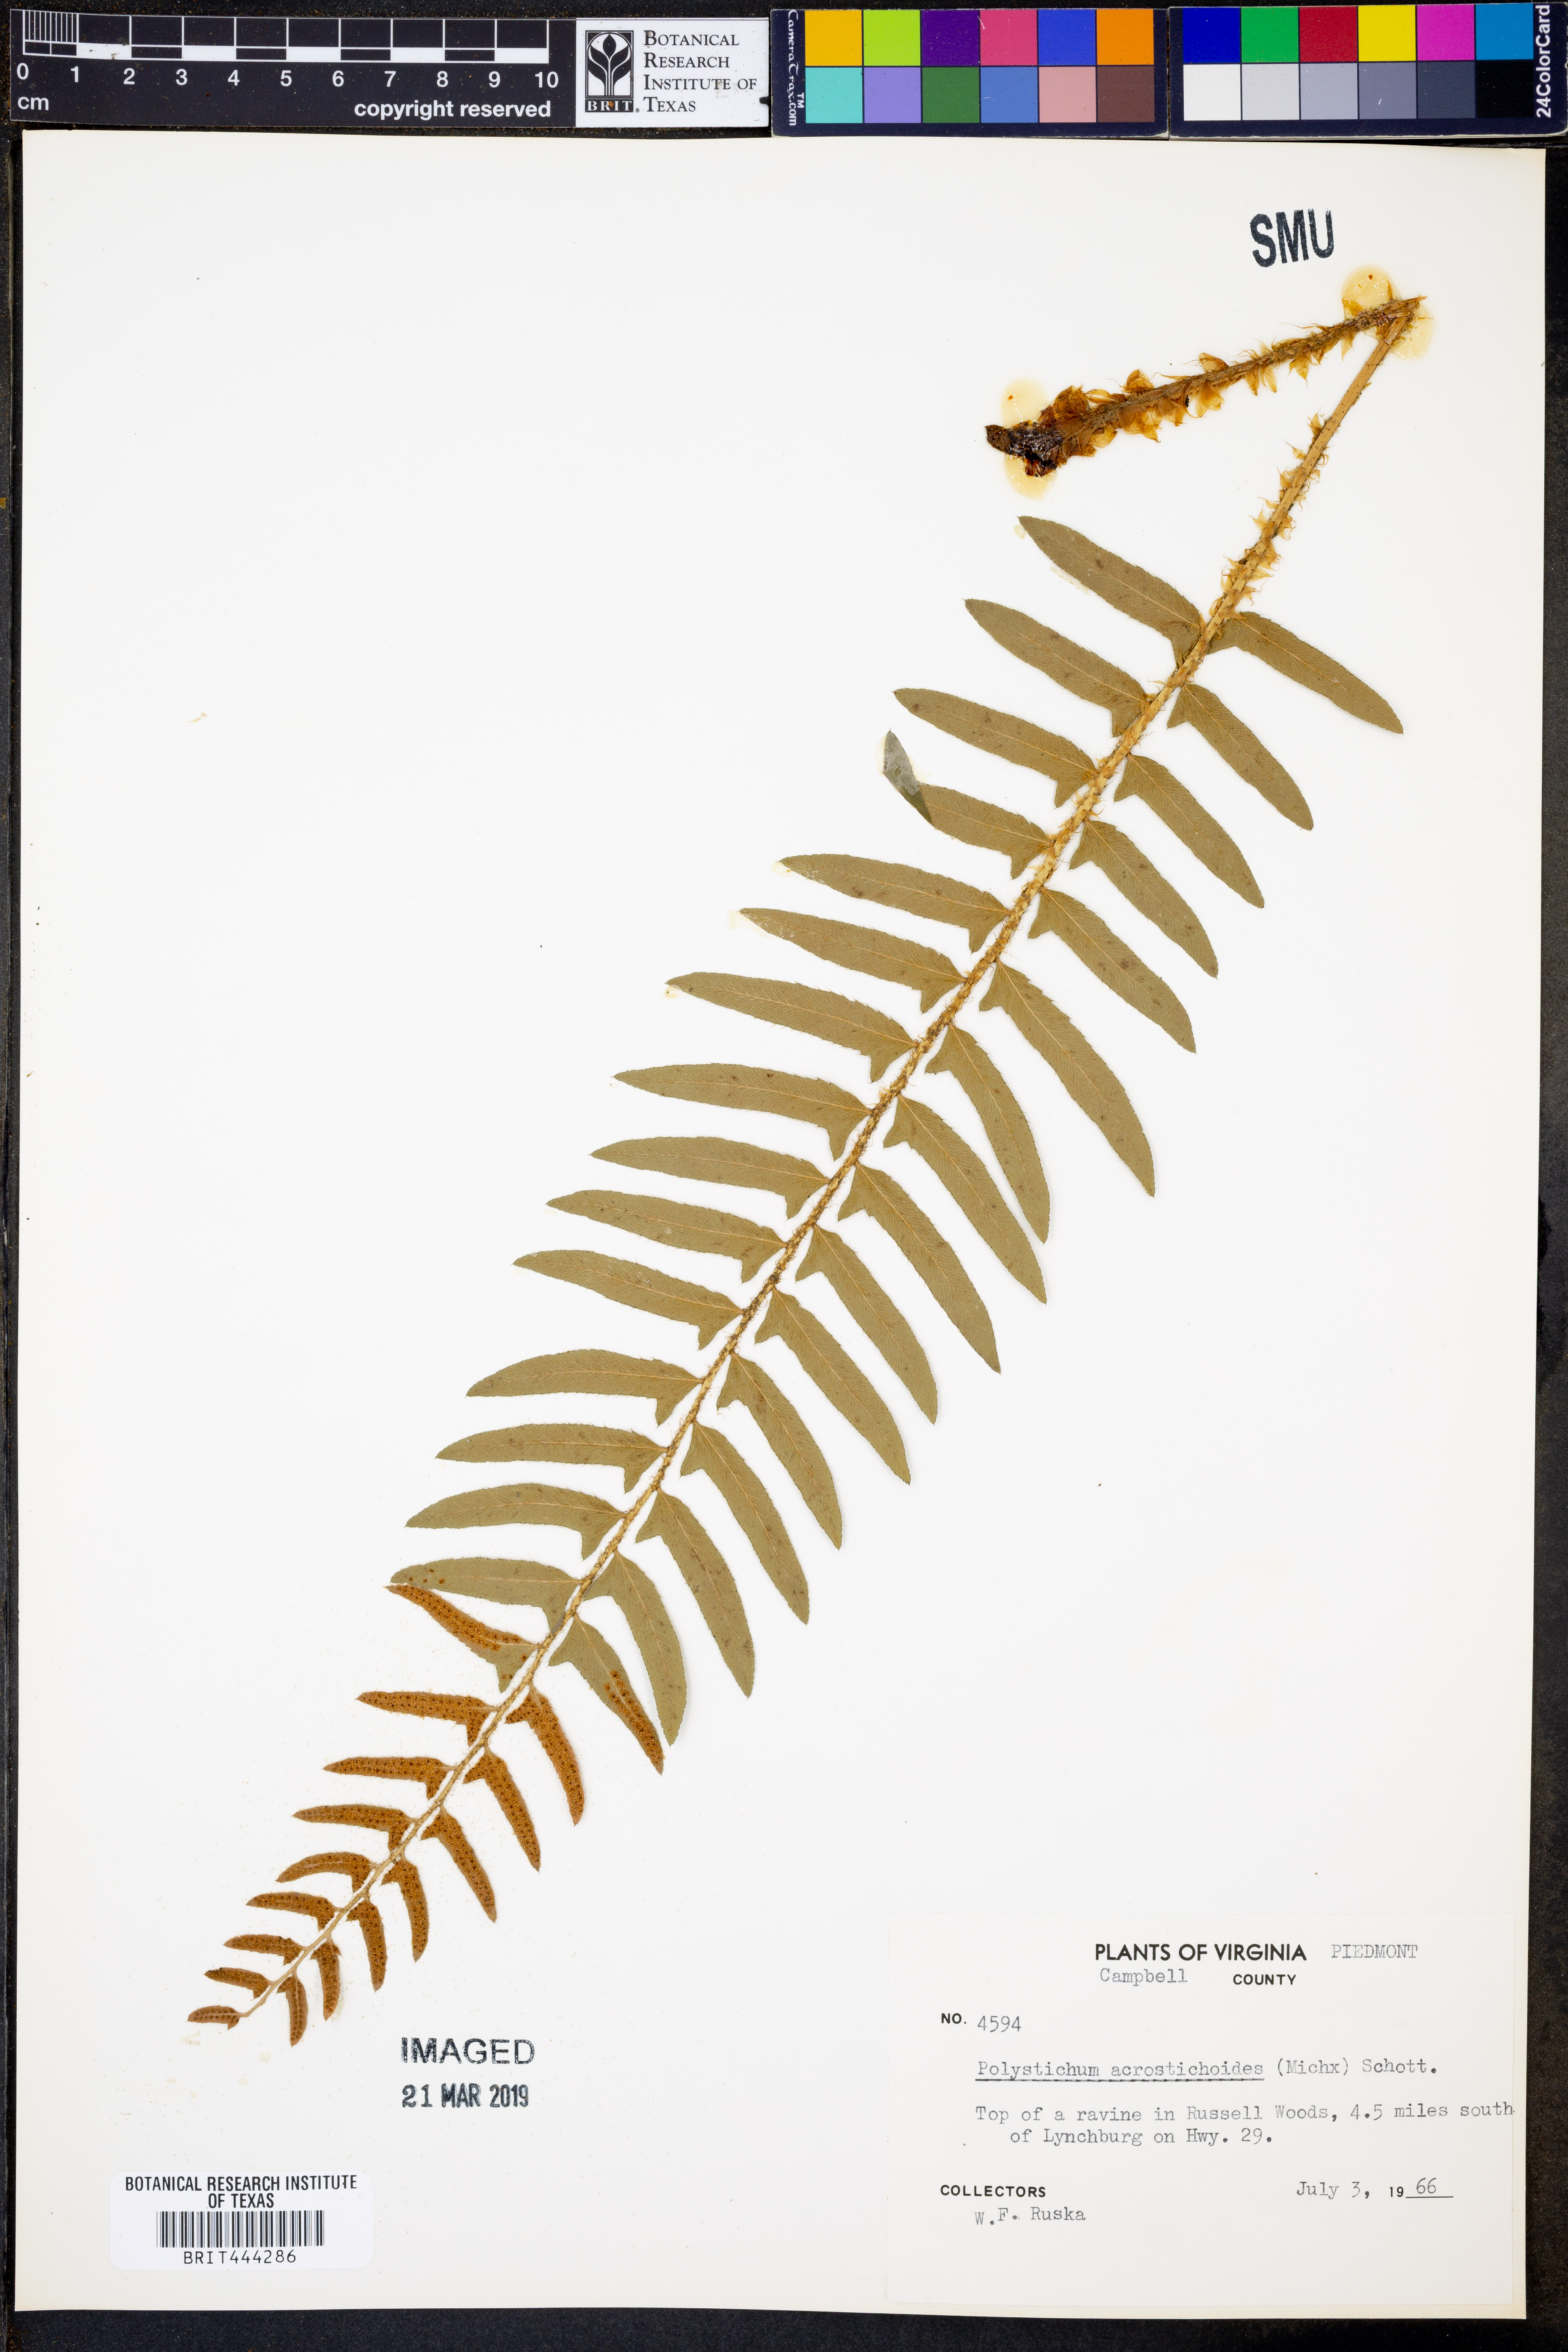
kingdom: Plantae
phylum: Tracheophyta
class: Polypodiopsida
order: Polypodiales
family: Dryopteridaceae
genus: Polystichum
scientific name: Polystichum acrostichoides
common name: Christmas fern
